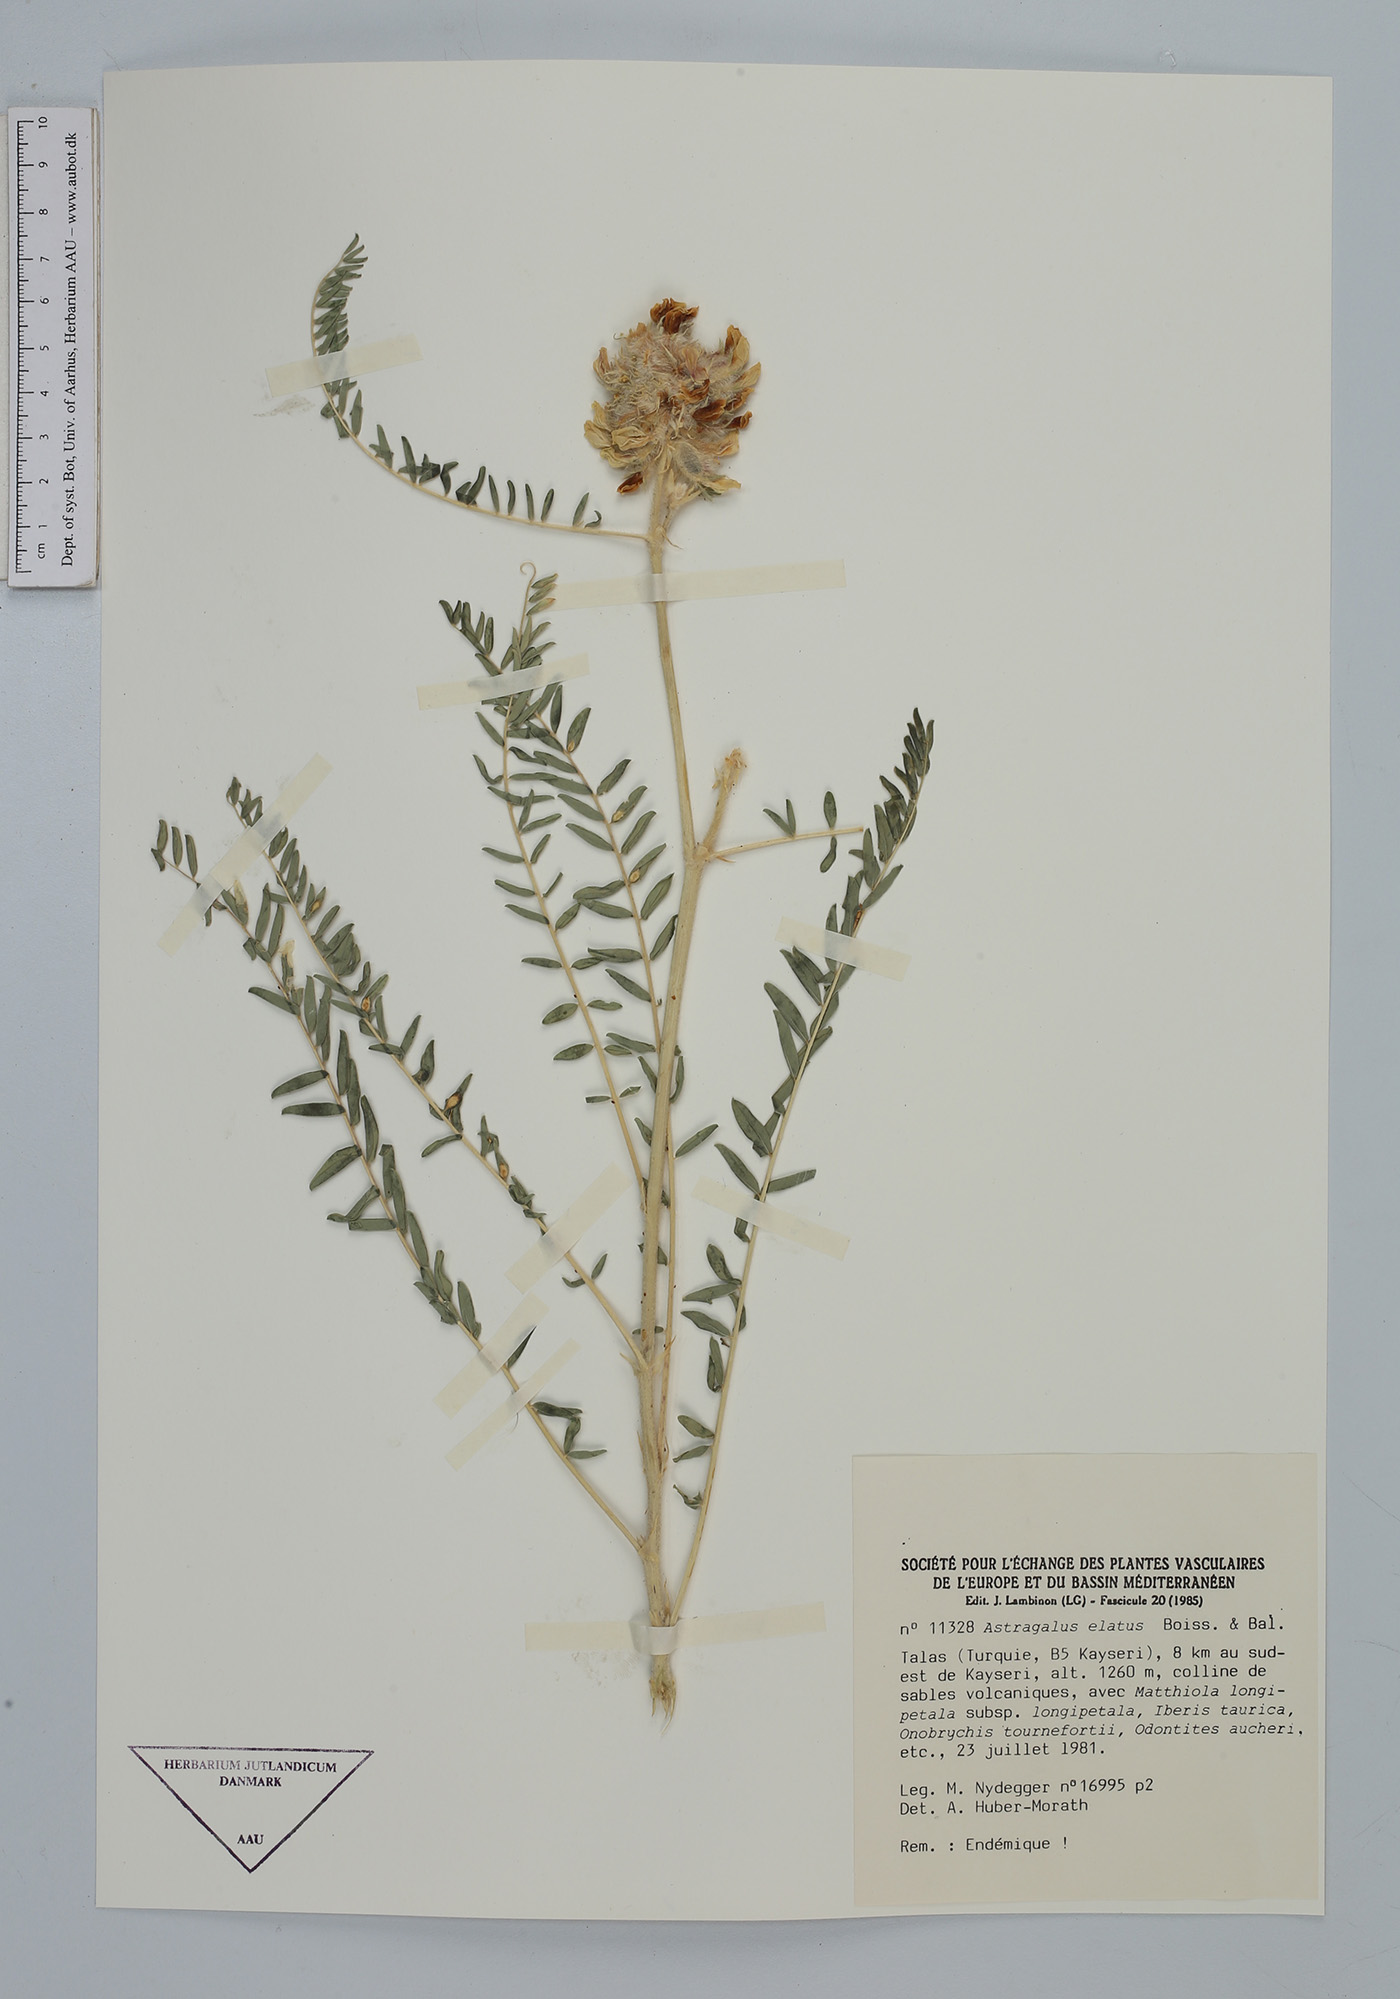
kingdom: Plantae
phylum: Tracheophyta
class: Magnoliopsida
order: Fabales
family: Fabaceae
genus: Astragalus
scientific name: Astragalus elatus
